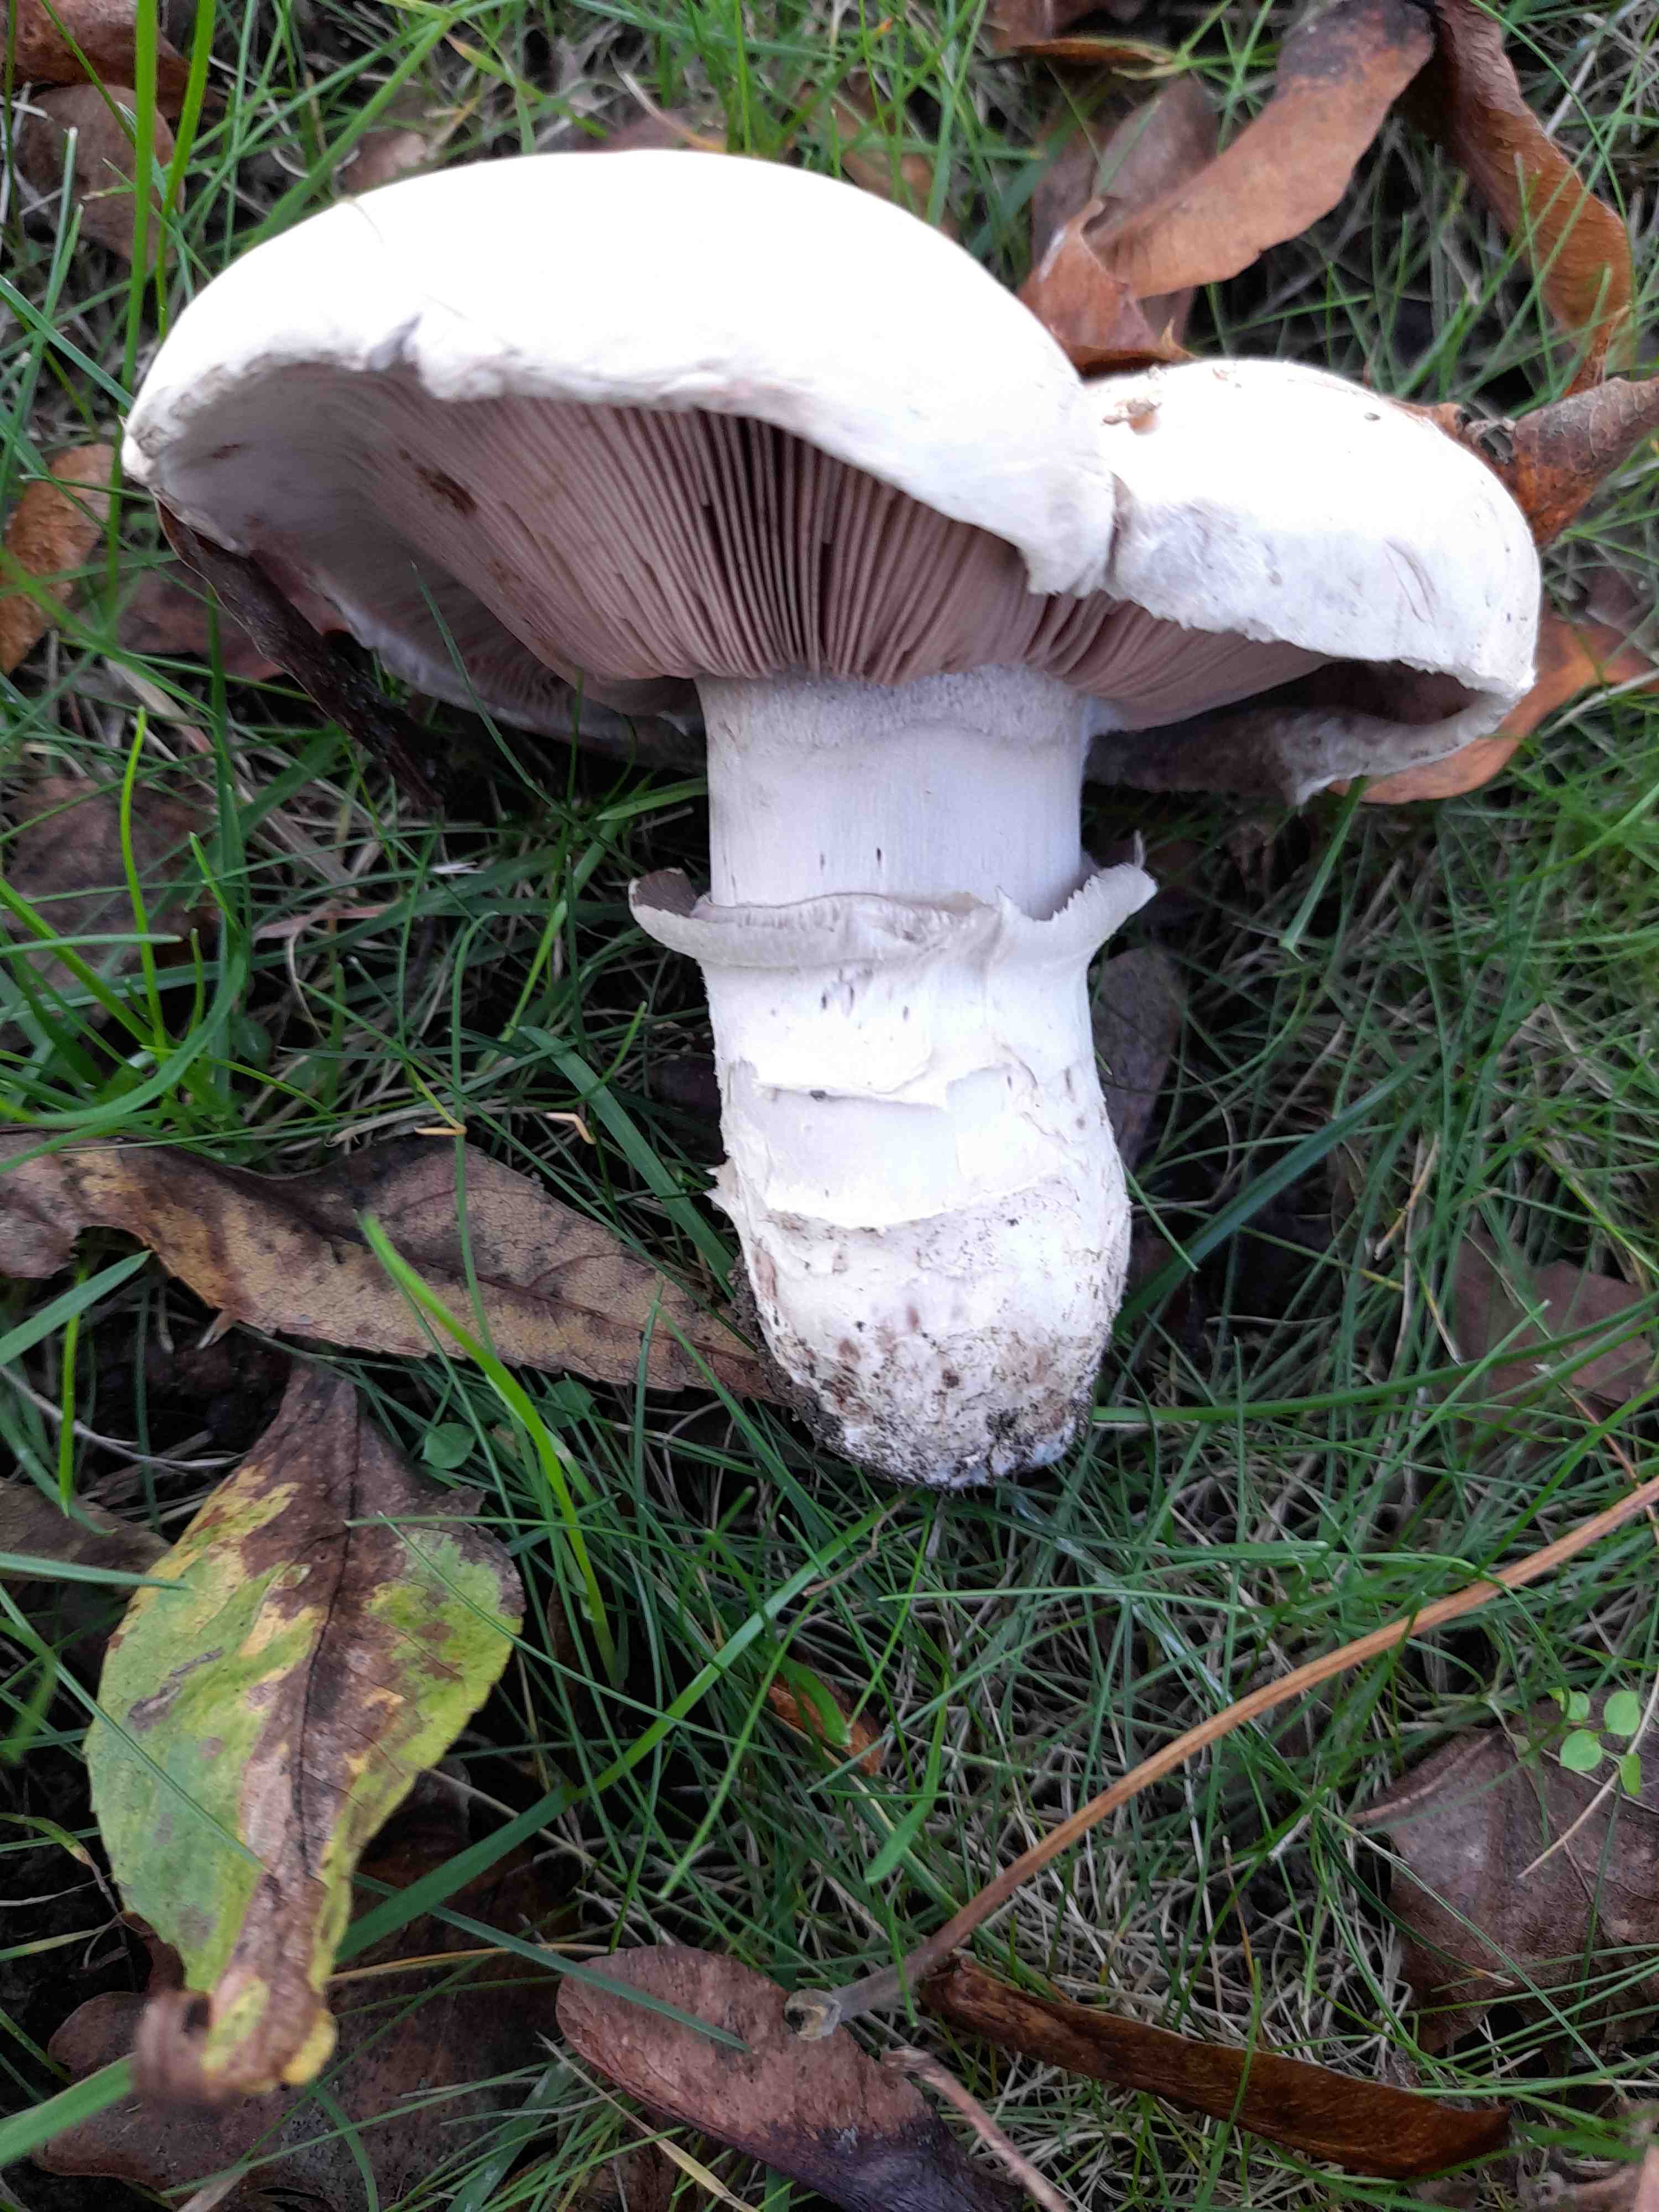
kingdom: Fungi
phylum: Basidiomycota
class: Agaricomycetes
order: Agaricales
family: Agaricaceae
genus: Agaricus
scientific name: Agaricus bitorquis
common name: vej-champignon
